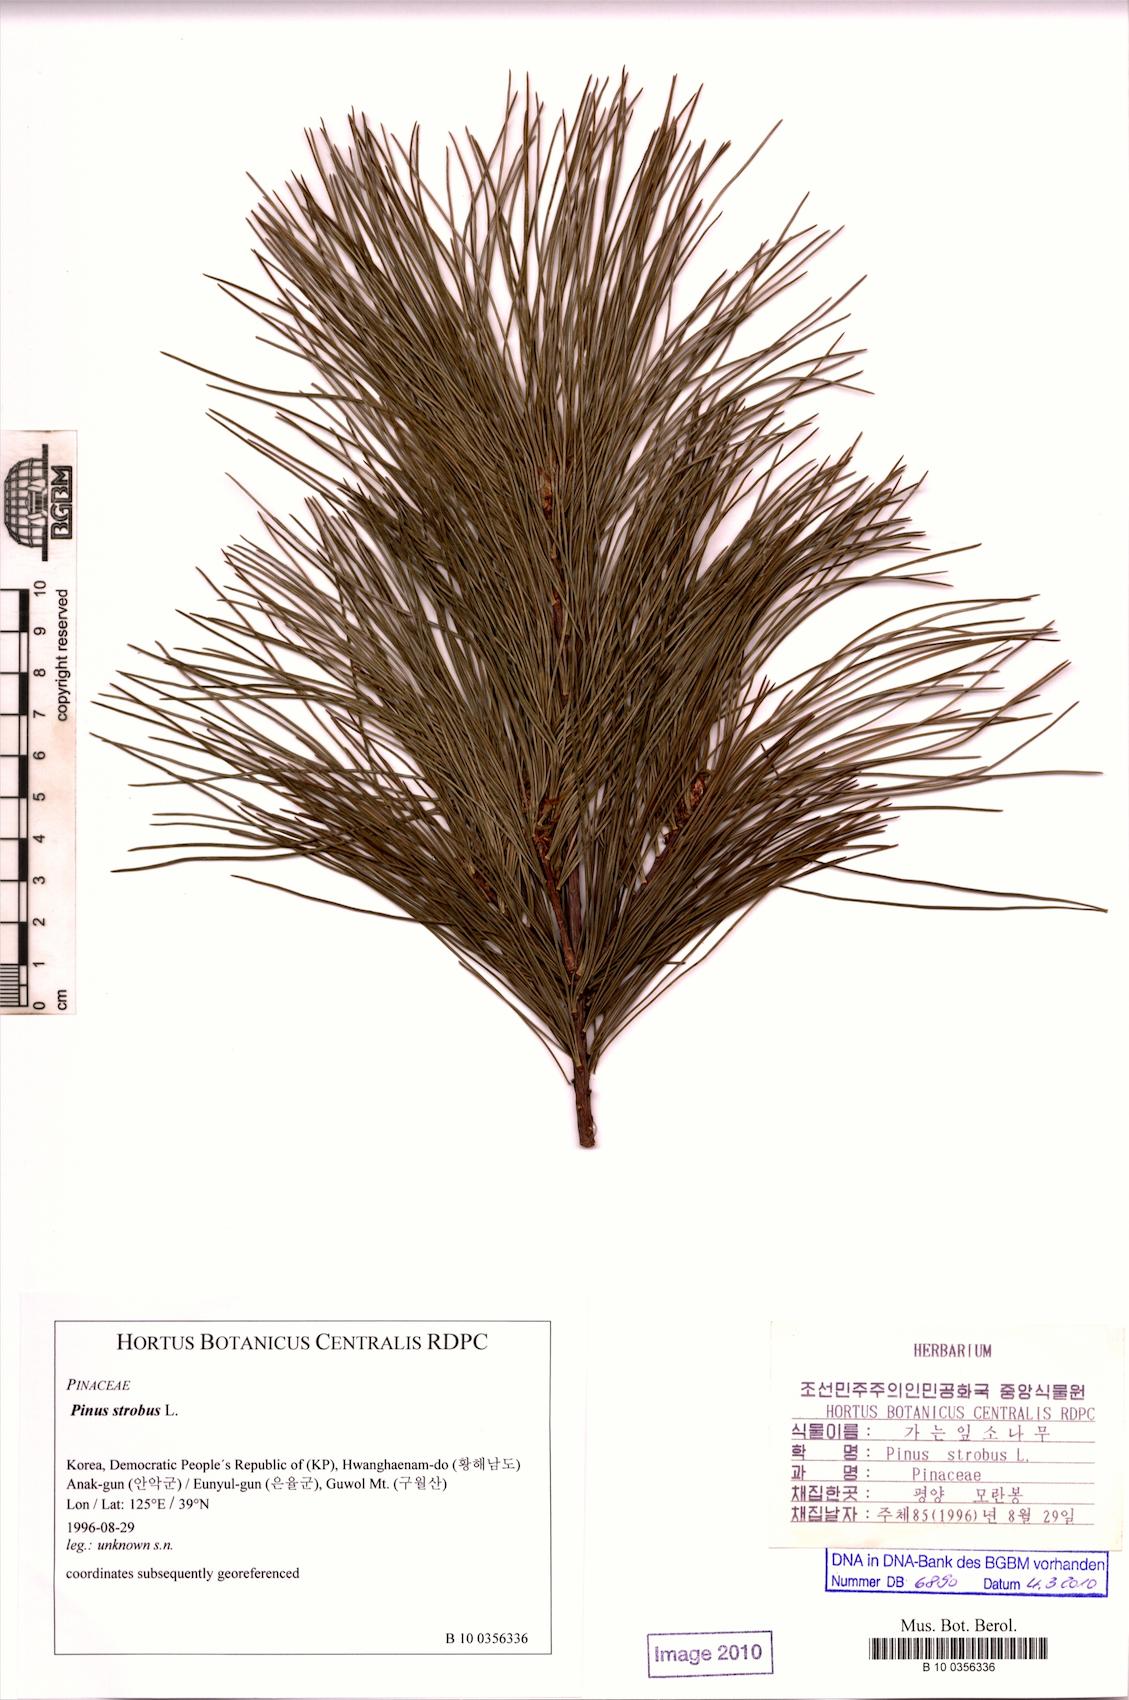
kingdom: Plantae
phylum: Tracheophyta
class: Pinopsida
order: Pinales
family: Pinaceae
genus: Pinus
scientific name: Pinus strobus
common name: Weymouth pine
